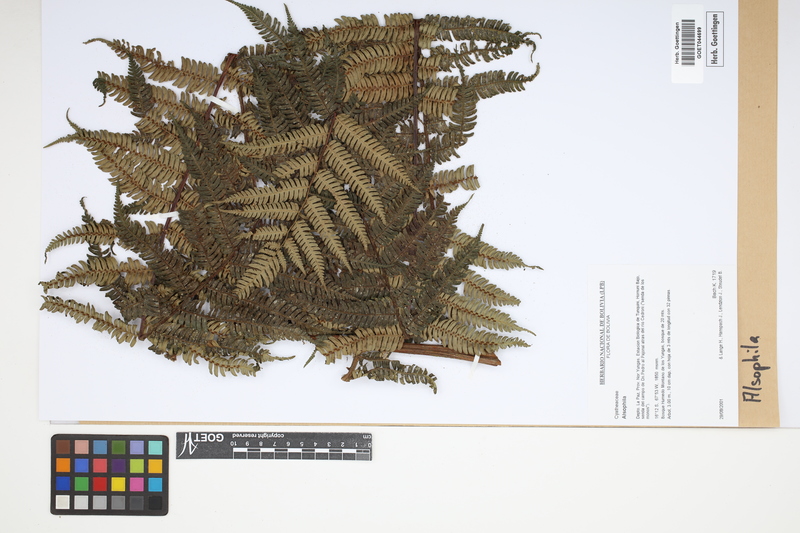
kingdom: Plantae
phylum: Tracheophyta
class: Polypodiopsida
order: Cyatheales
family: Cyatheaceae
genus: Alsophila
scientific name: Alsophila
